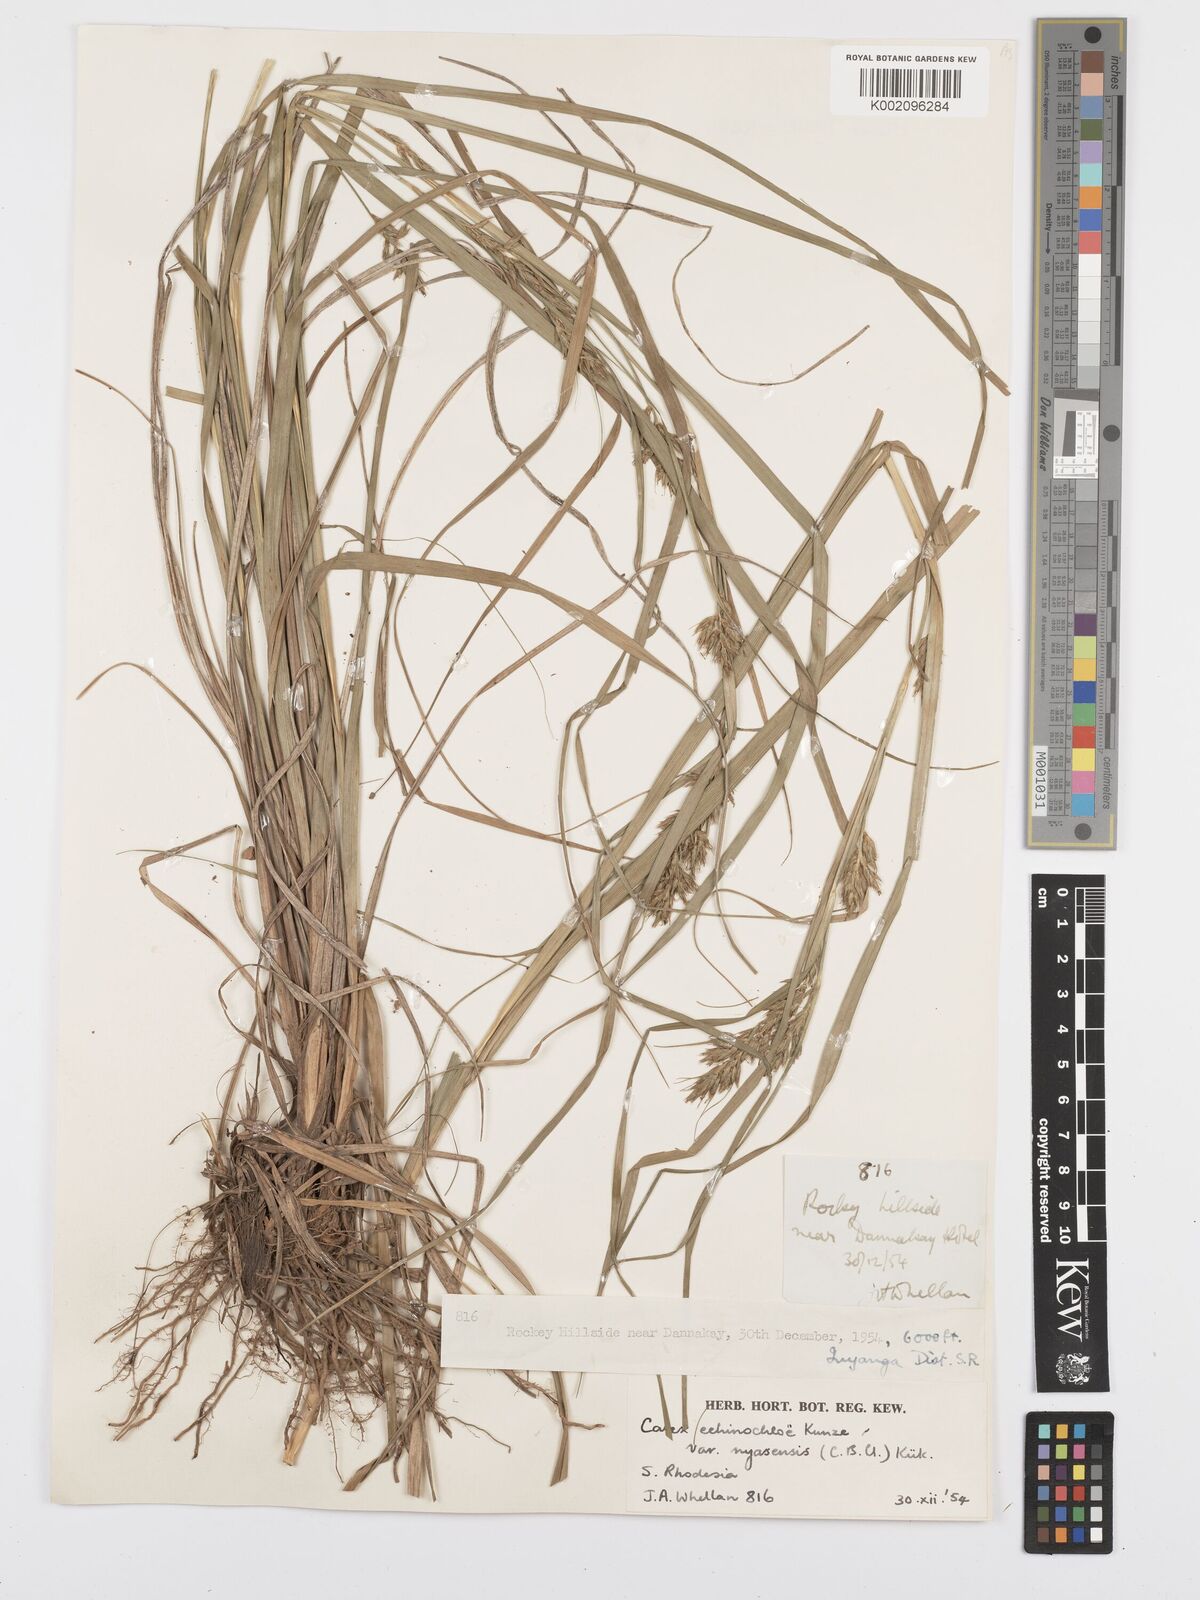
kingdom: Plantae
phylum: Tracheophyta
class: Liliopsida
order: Poales
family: Cyperaceae
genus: Carex
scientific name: Carex spicatopaniculata
